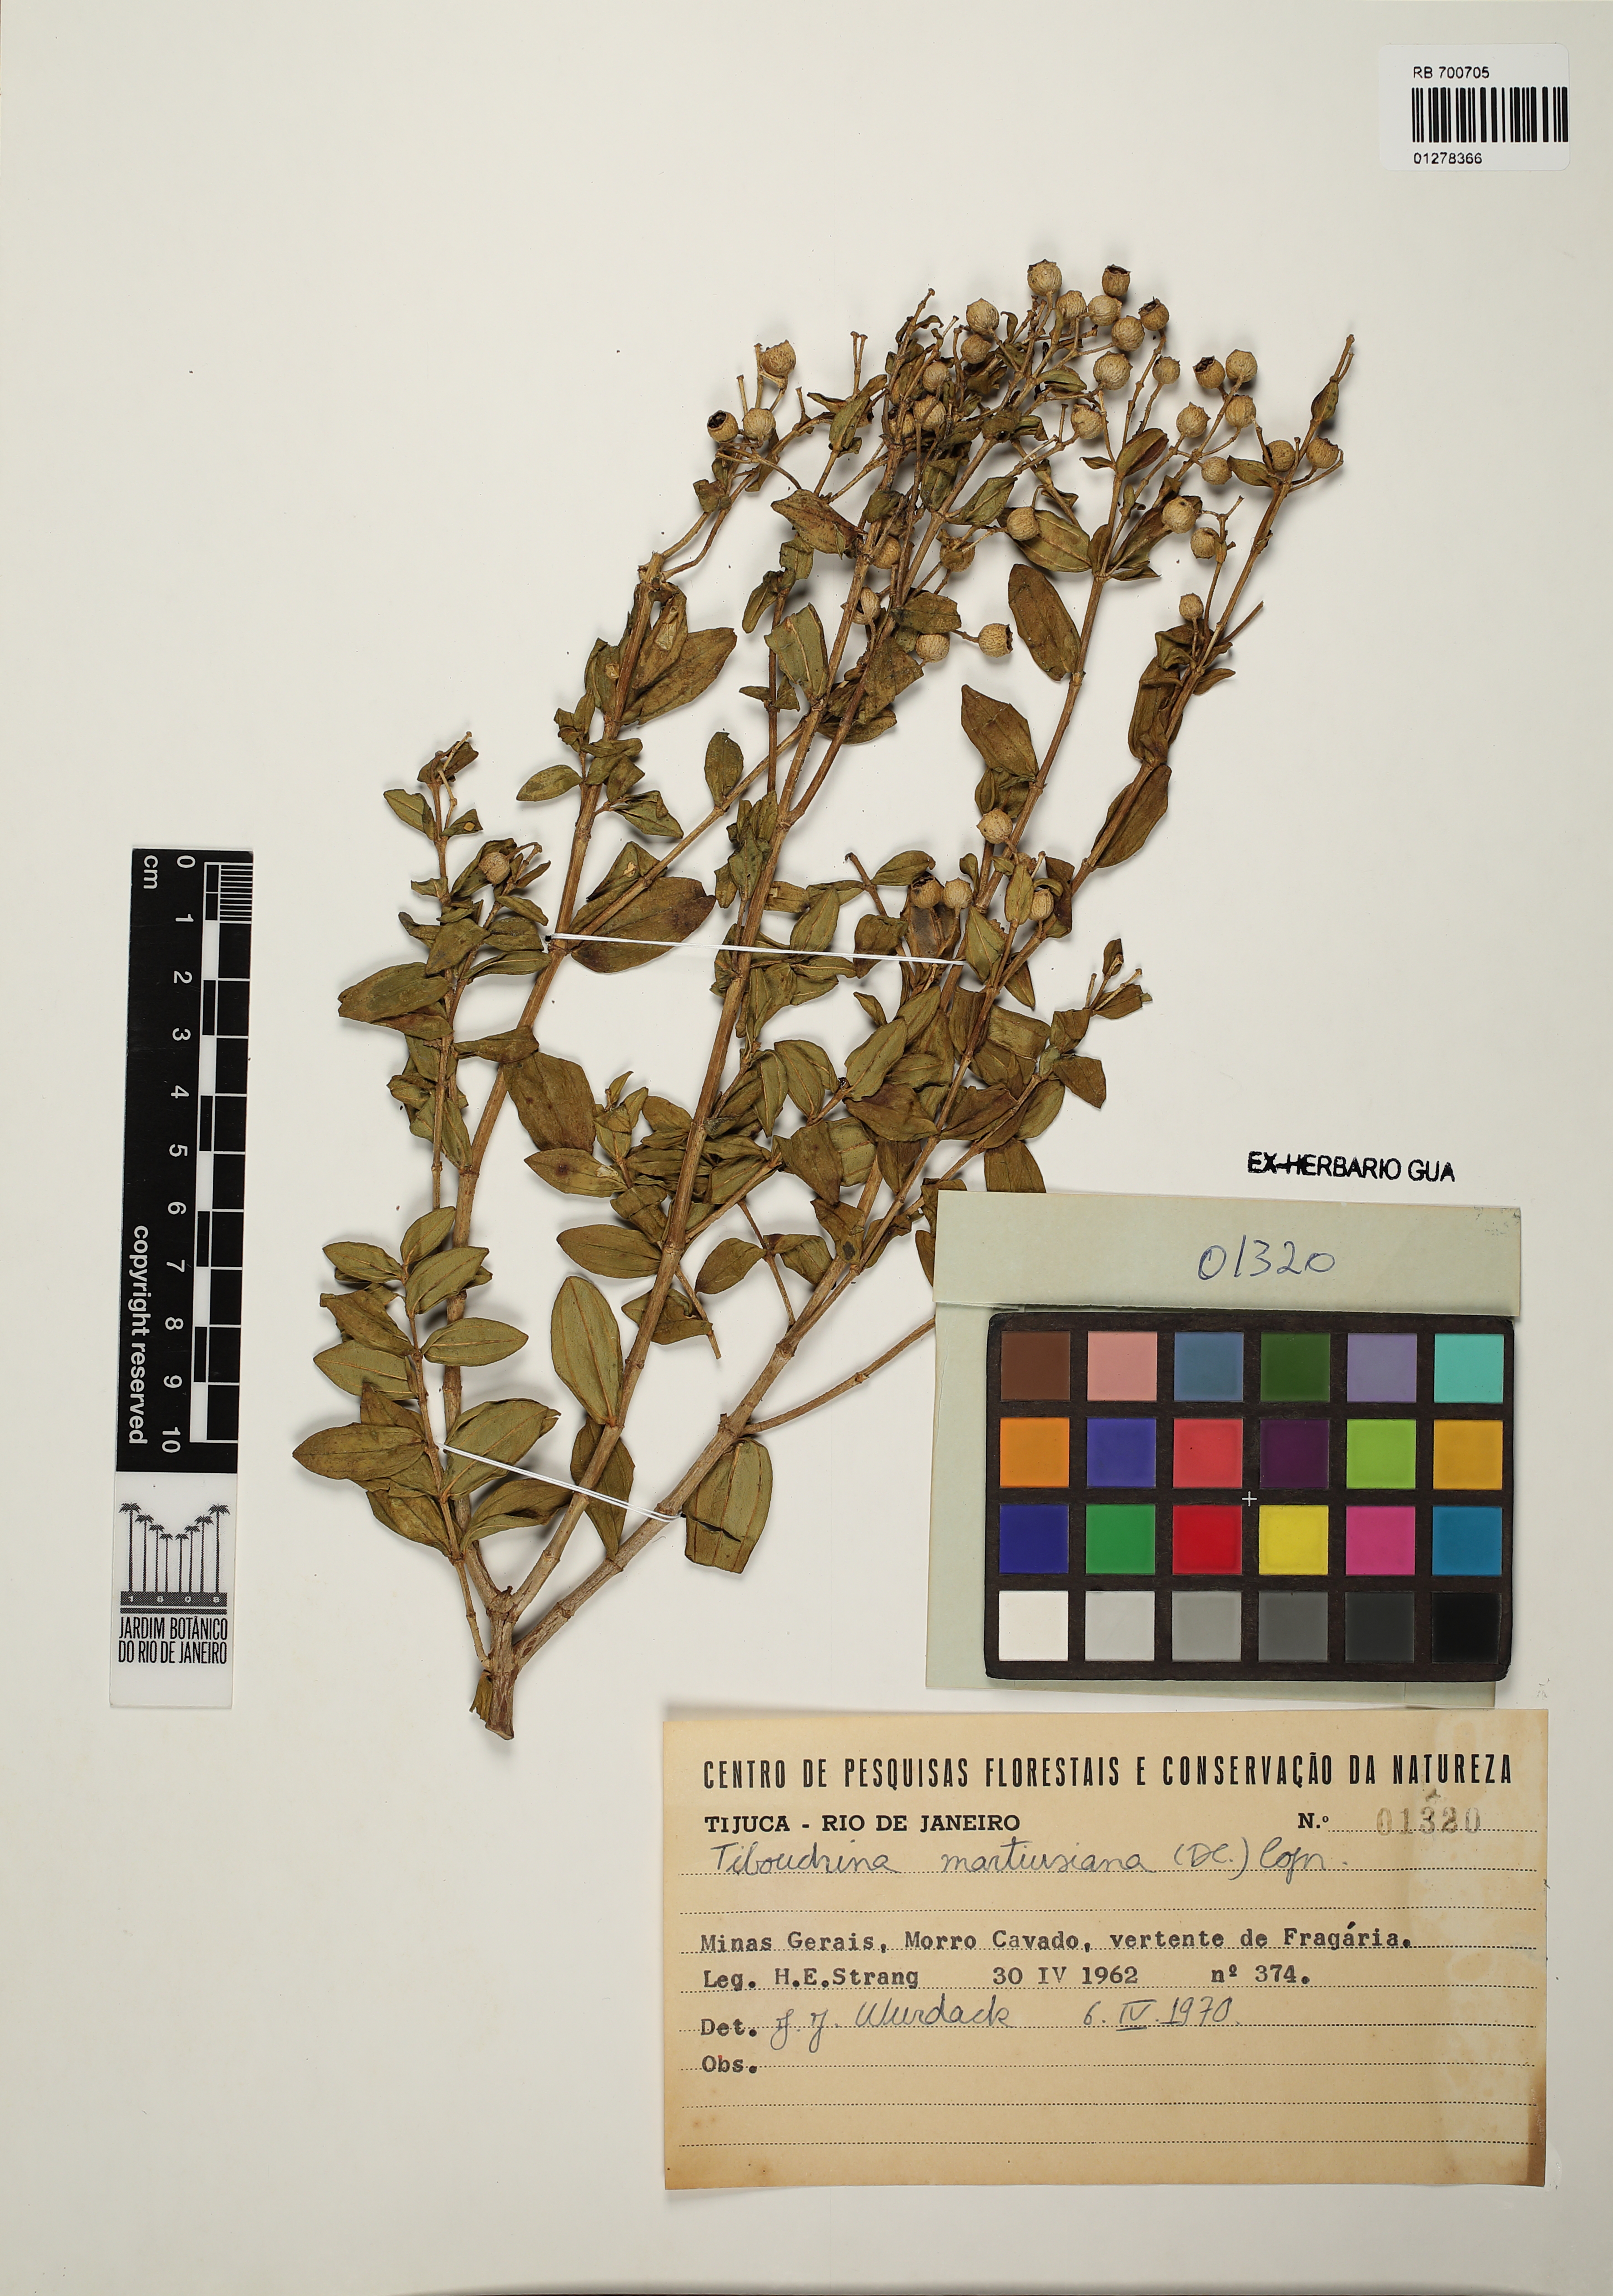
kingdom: Plantae
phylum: Tracheophyta
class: Magnoliopsida
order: Myrtales
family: Melastomataceae
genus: Pleroma
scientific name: Pleroma martiusianum
